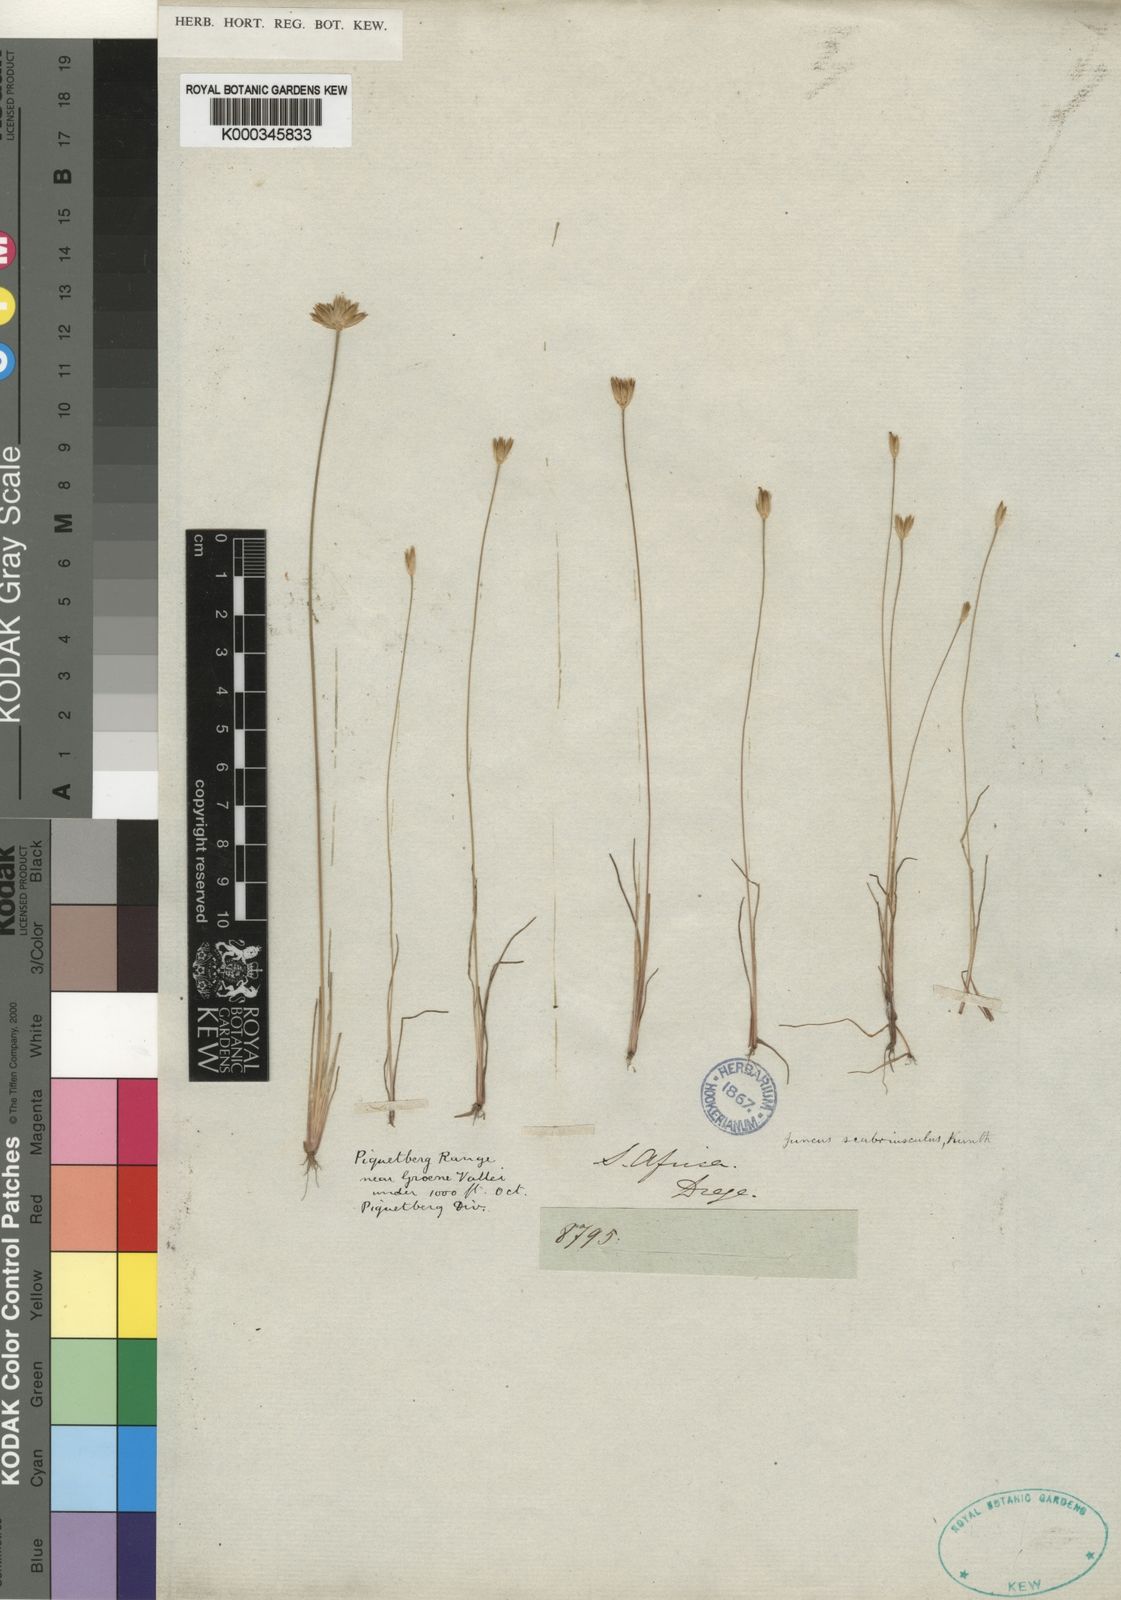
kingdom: Plantae
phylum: Tracheophyta
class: Liliopsida
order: Poales
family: Juncaceae
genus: Juncus
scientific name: Juncus scabriusculus
